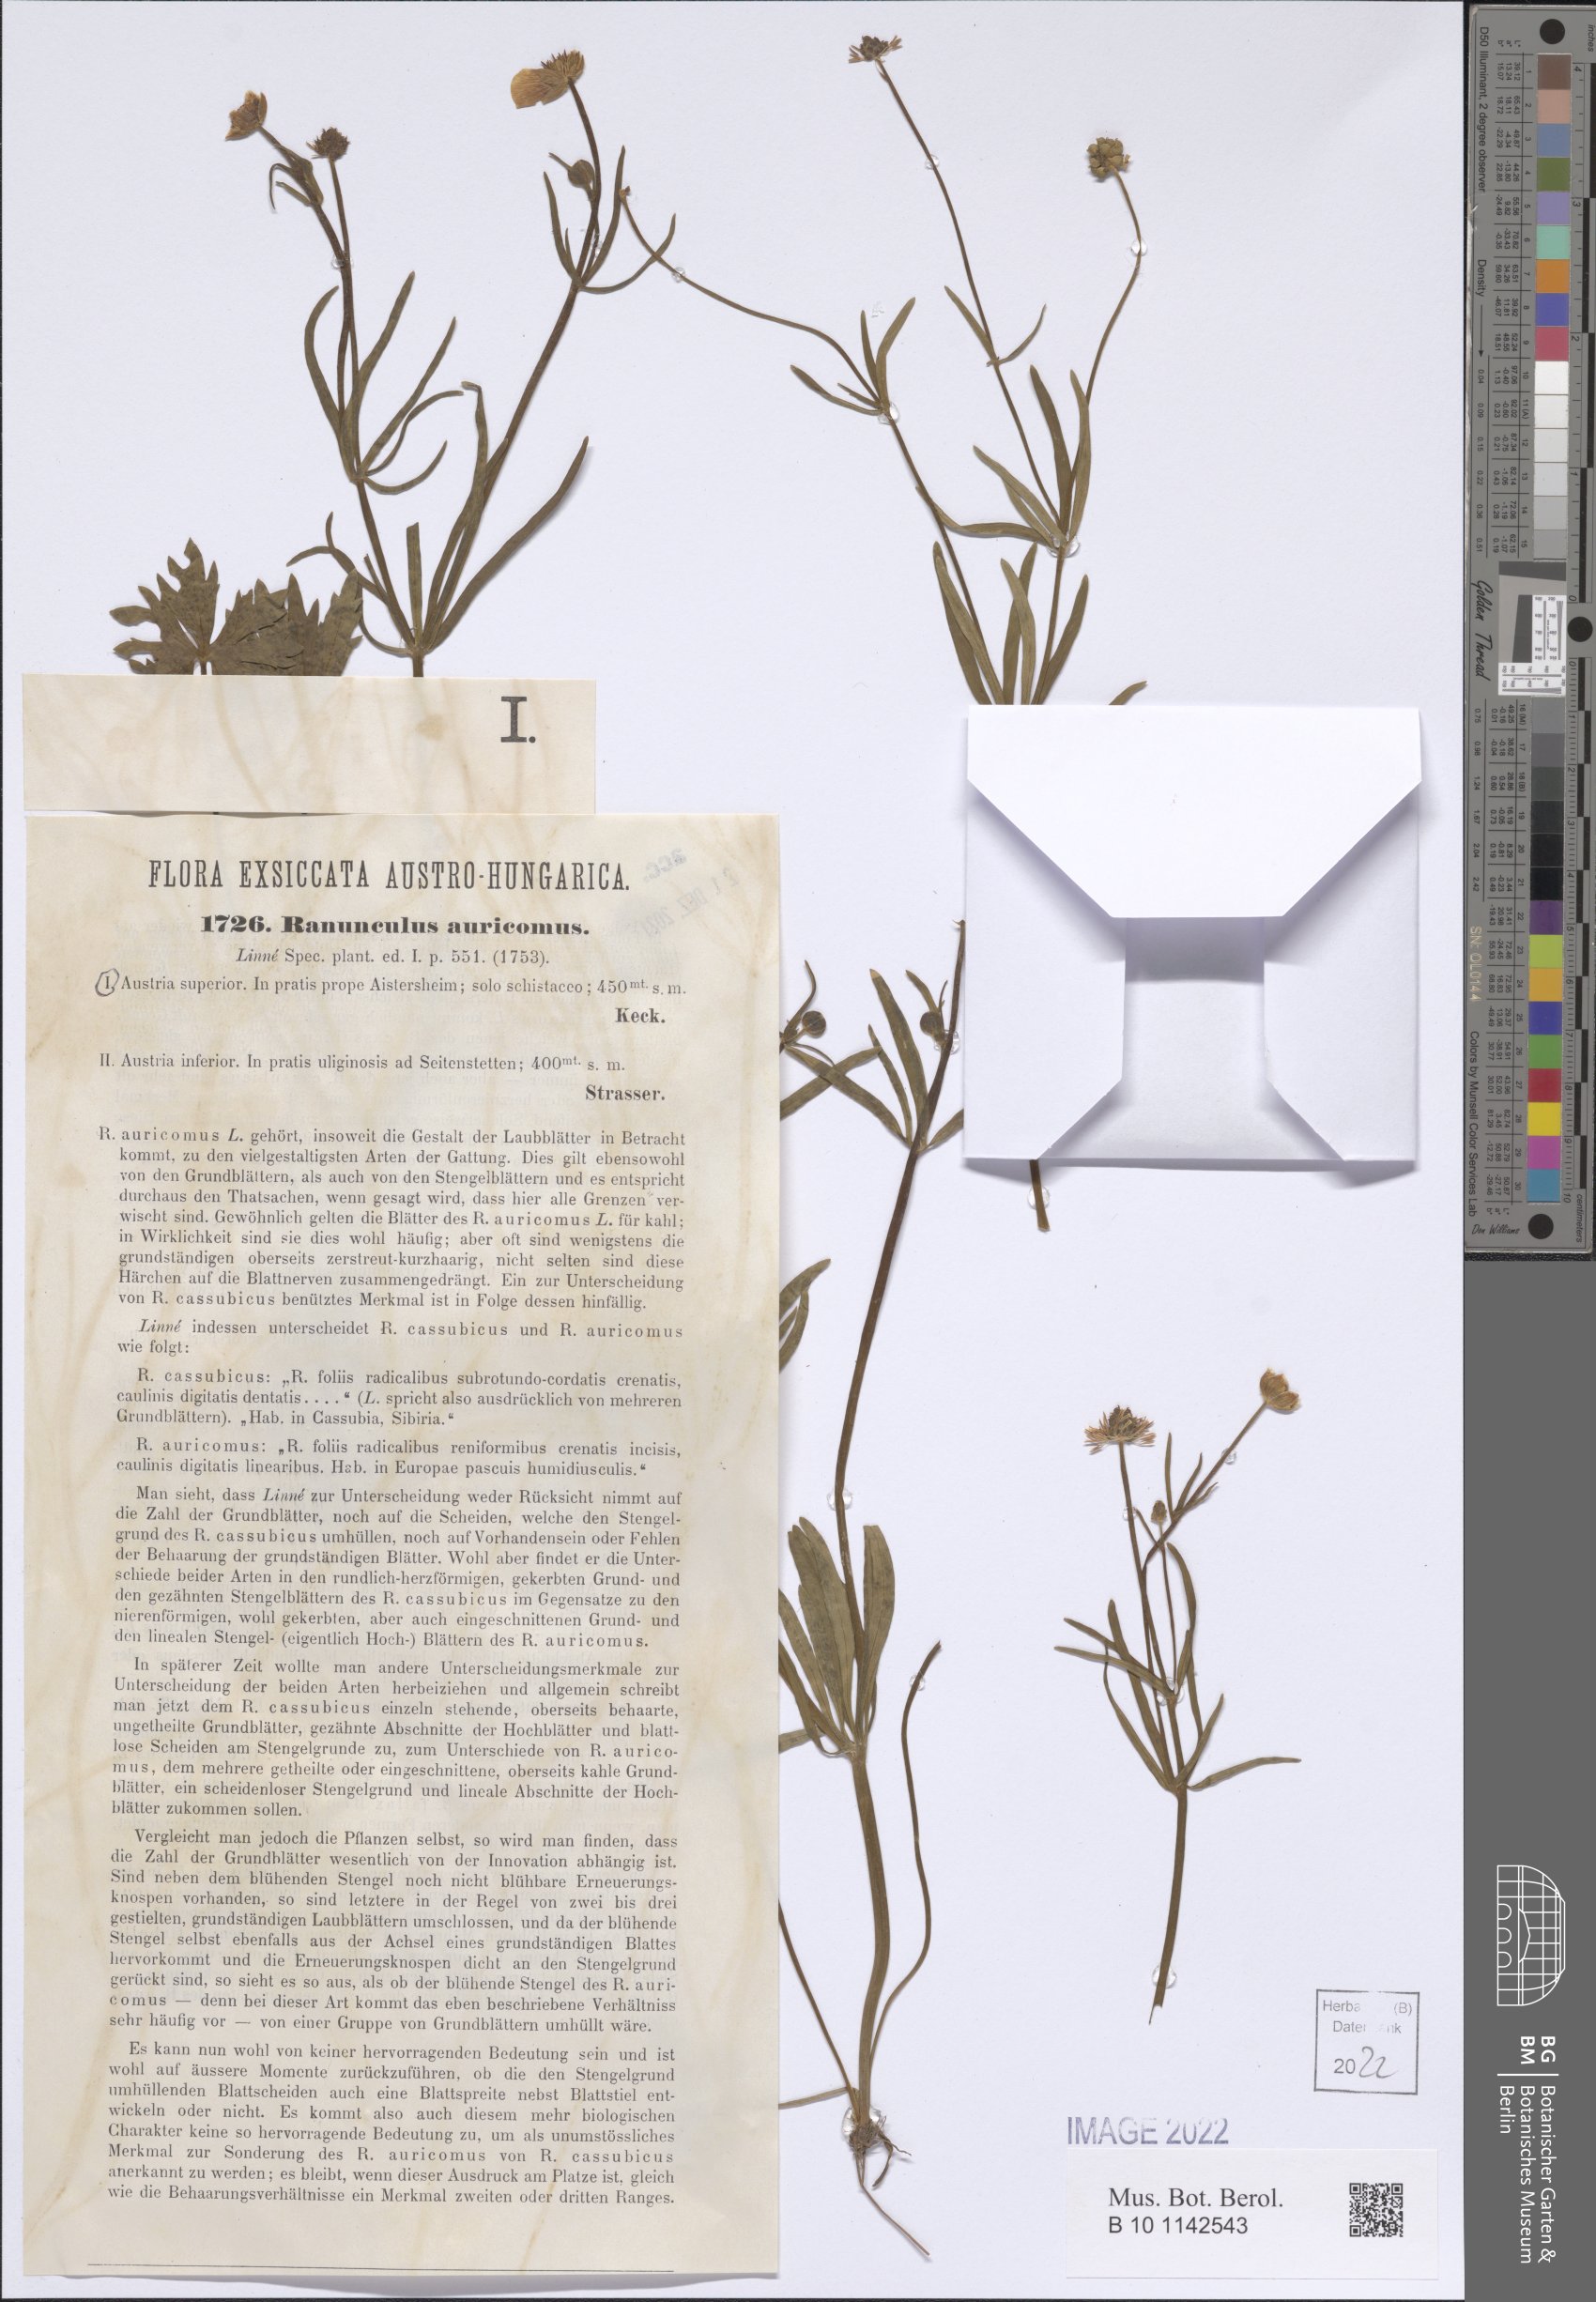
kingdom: Plantae
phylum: Tracheophyta
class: Magnoliopsida
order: Ranunculales
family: Ranunculaceae
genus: Ranunculus
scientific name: Ranunculus auricomus
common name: Goldilocks buttercup
